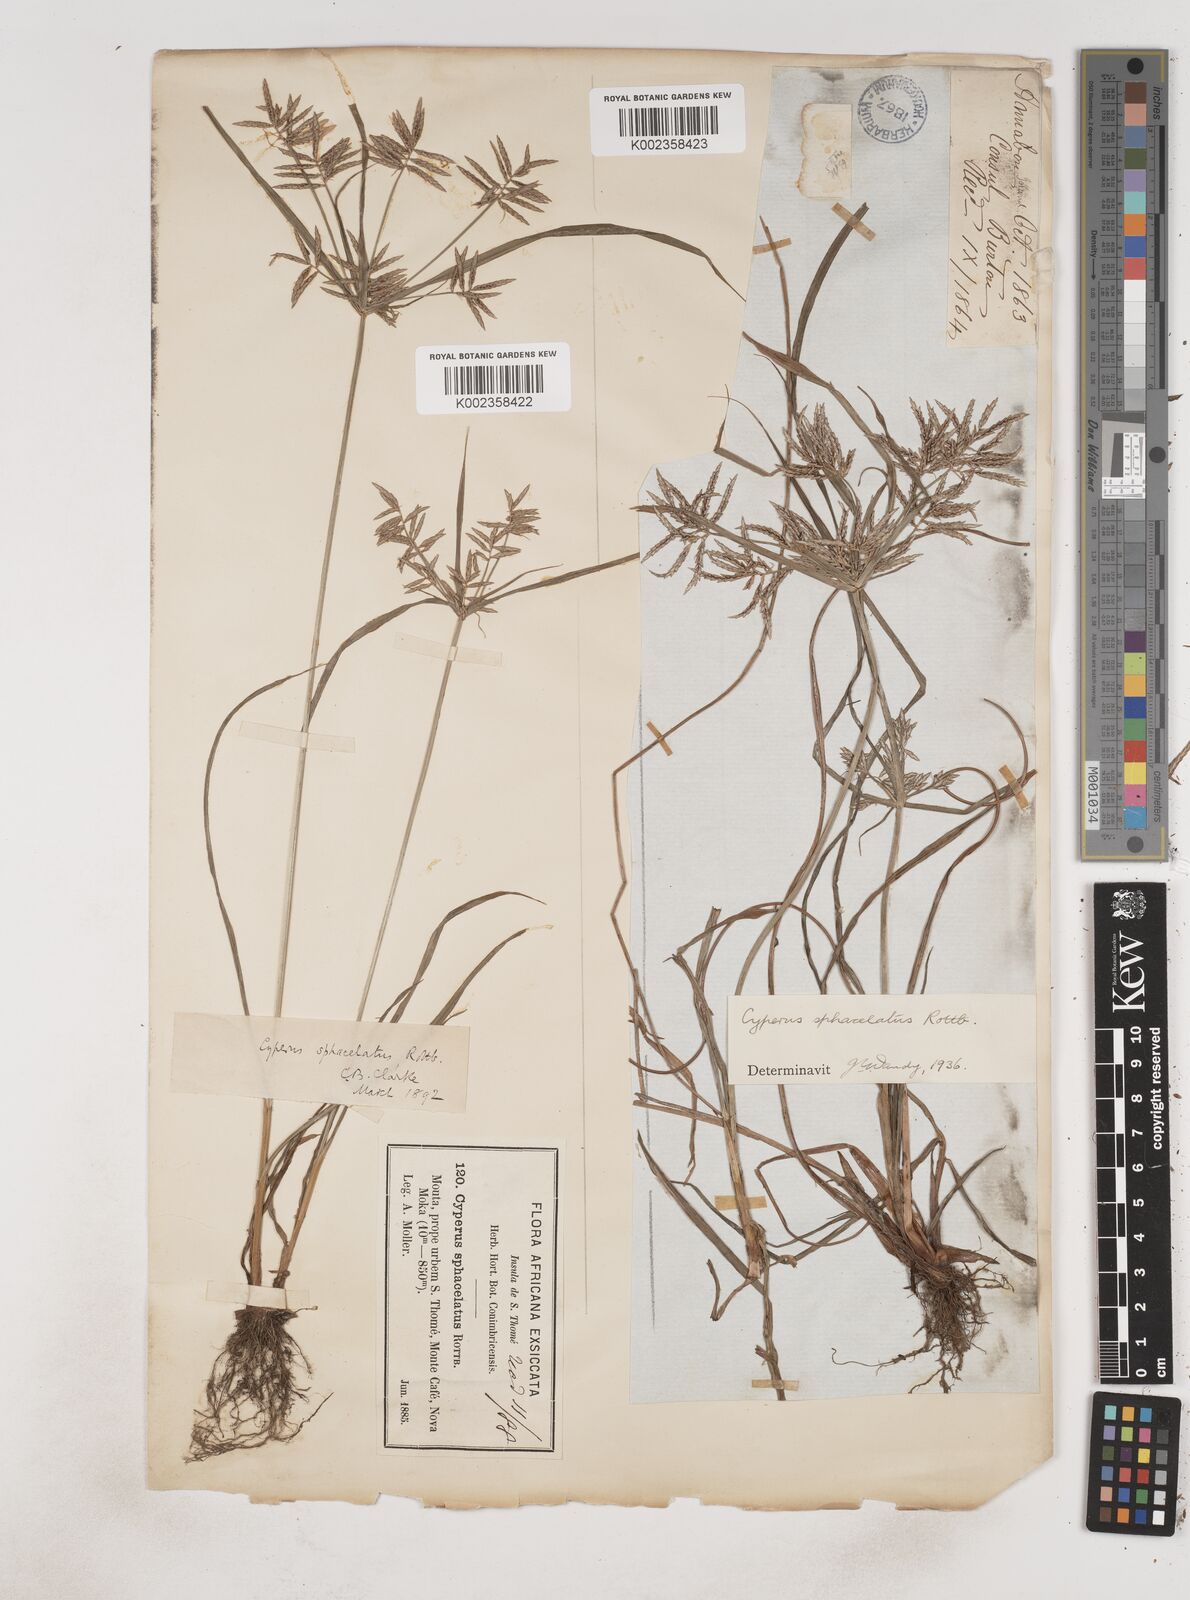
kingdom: Plantae
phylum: Tracheophyta
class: Liliopsida
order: Poales
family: Cyperaceae
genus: Cyperus
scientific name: Cyperus sphacelatus
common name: Roadside flatsedge
